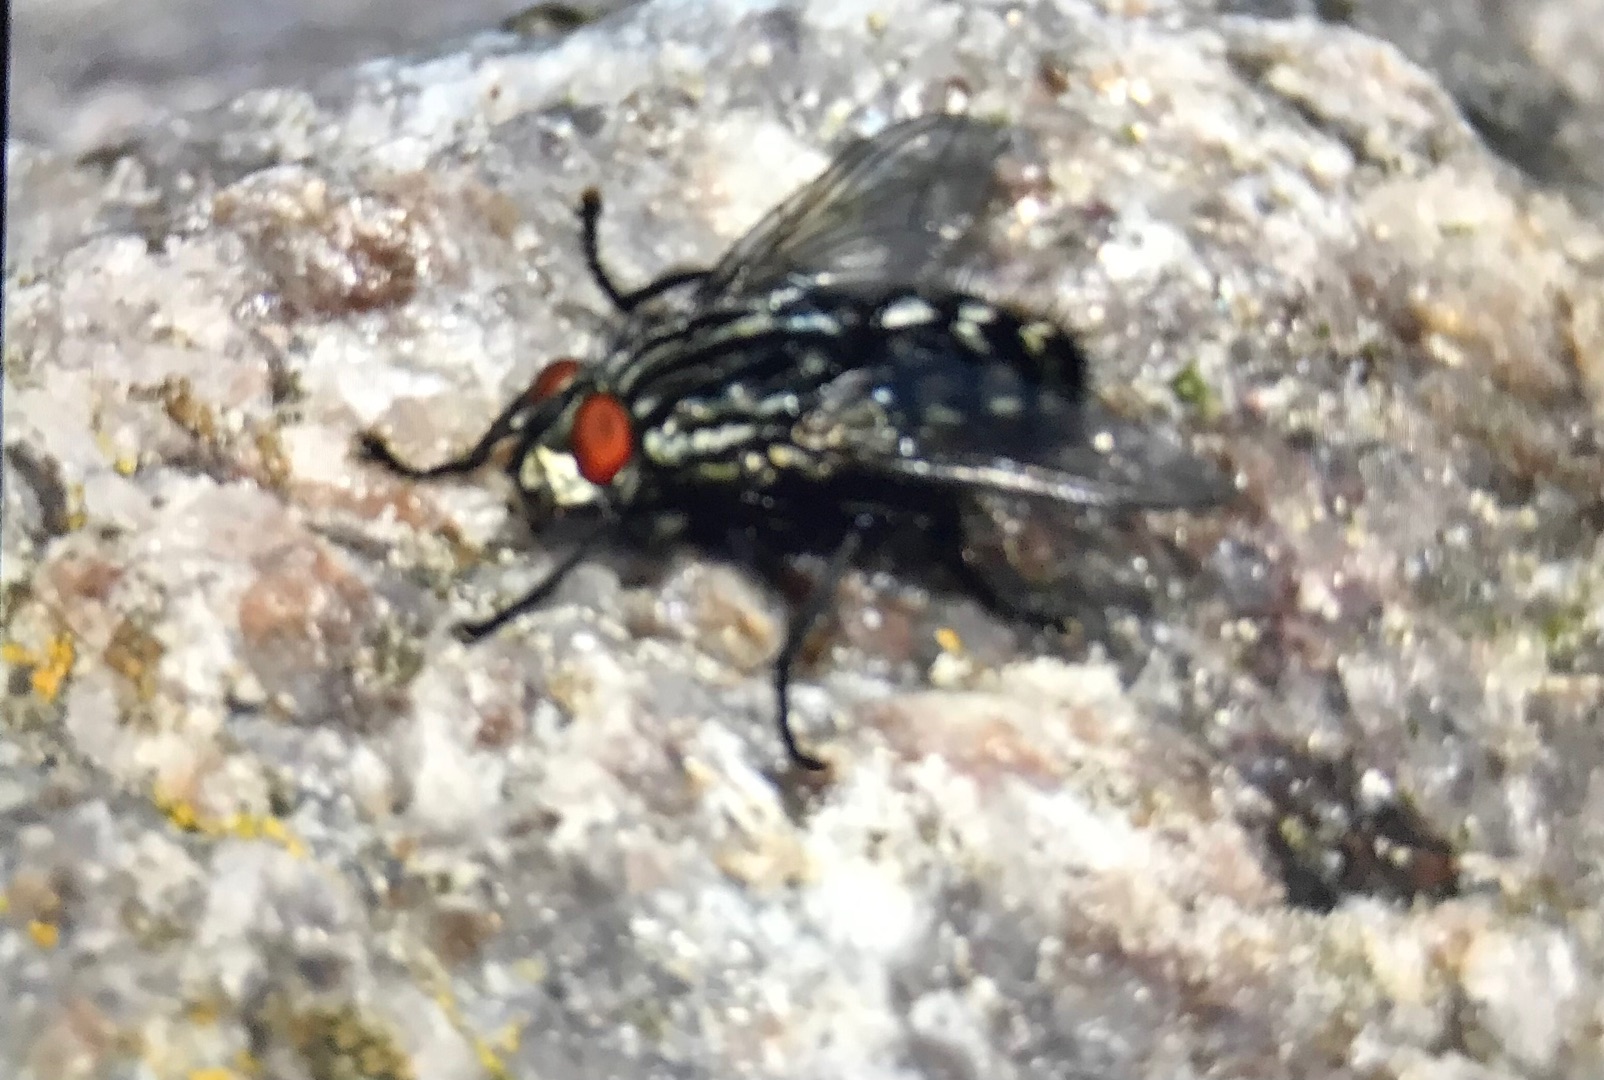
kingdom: Animalia
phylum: Arthropoda
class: Insecta
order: Diptera
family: Sarcophagidae
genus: Sarcophaga
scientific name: Sarcophaga
